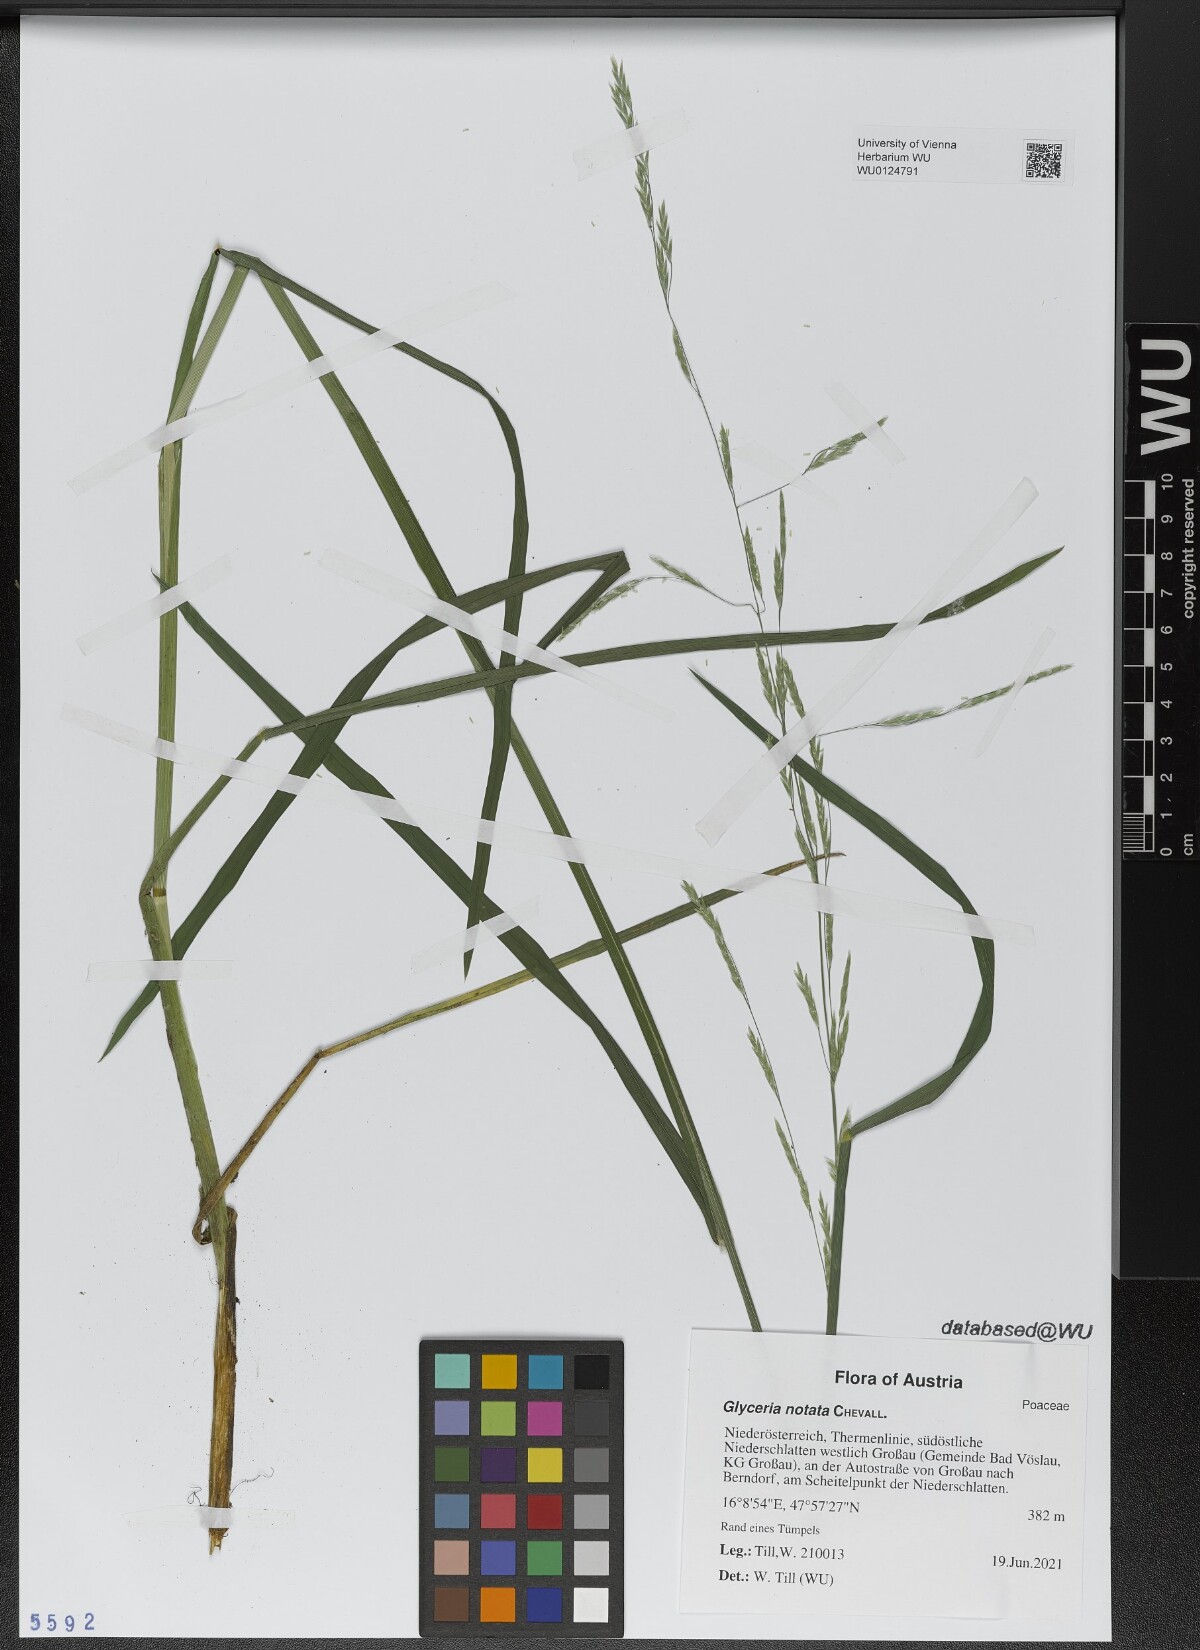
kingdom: Plantae
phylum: Tracheophyta
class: Liliopsida
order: Poales
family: Poaceae
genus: Glyceria
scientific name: Glyceria notata
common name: Plicate sweet-grass
